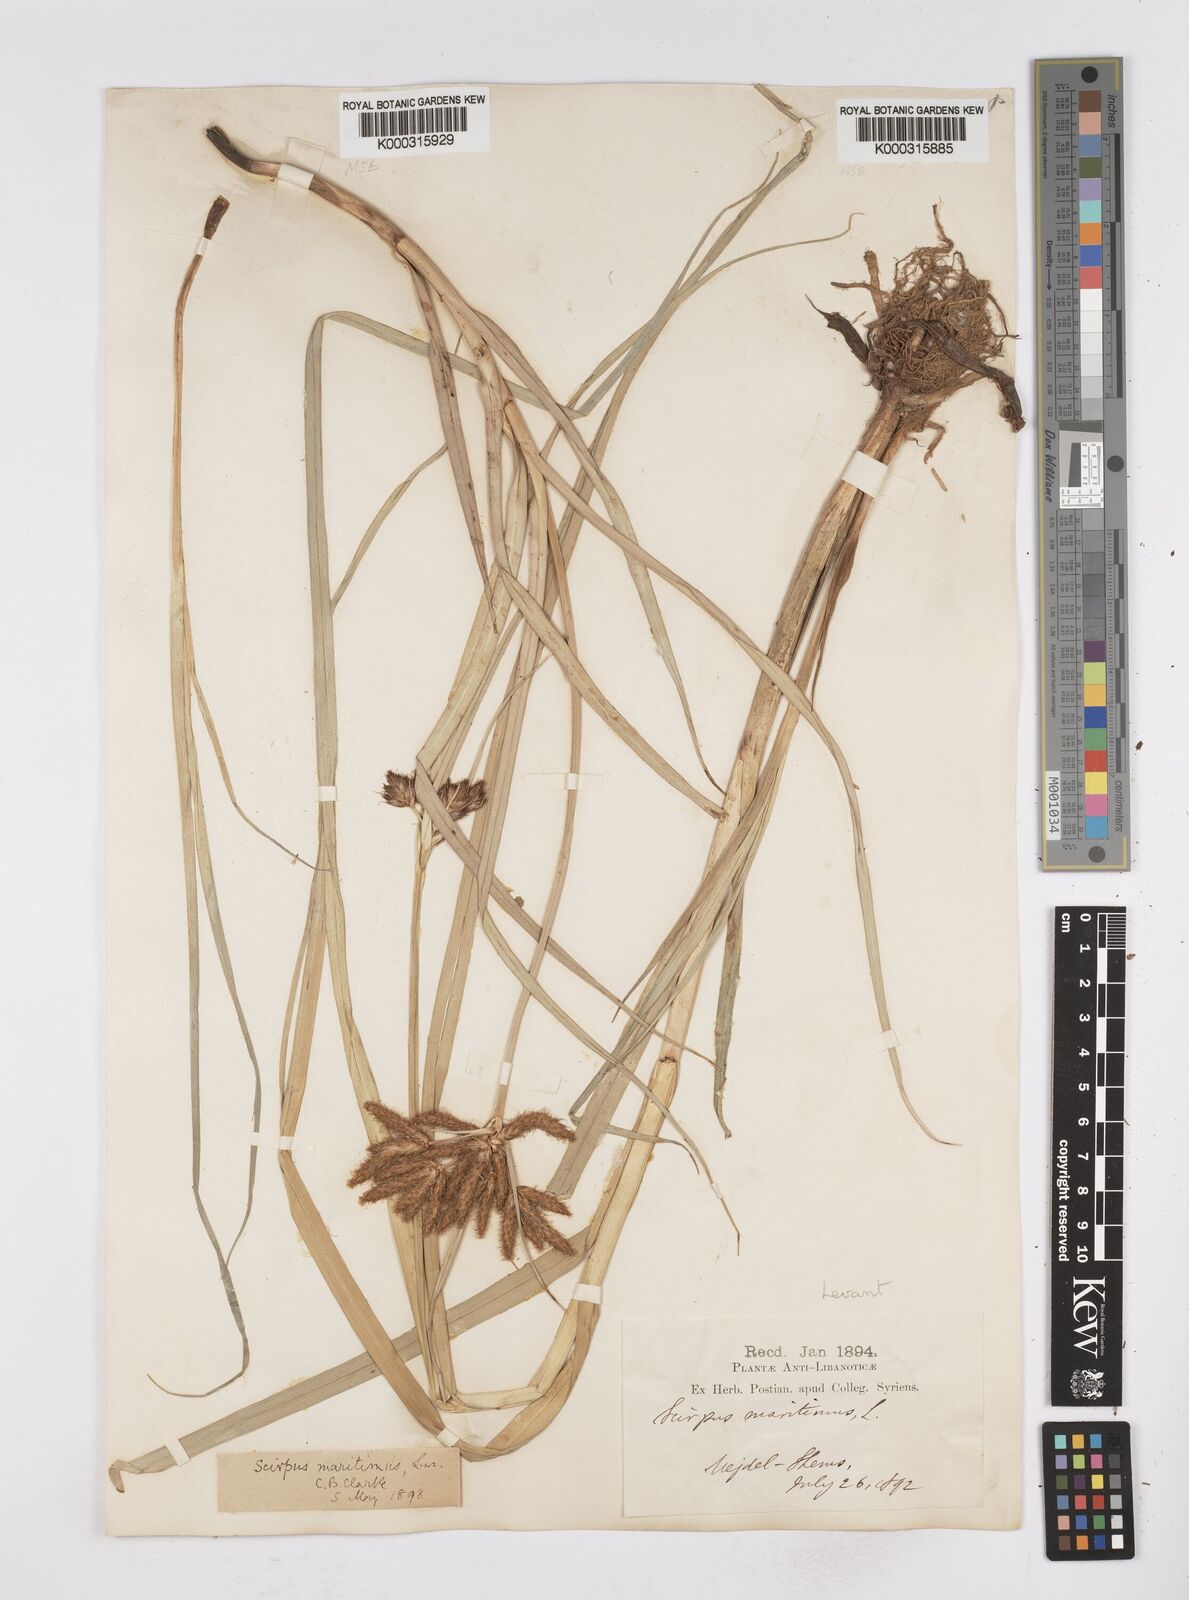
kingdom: Plantae
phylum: Tracheophyta
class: Liliopsida
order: Poales
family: Cyperaceae
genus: Bolboschoenus
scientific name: Bolboschoenus maritimus
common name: Sea club-rush
